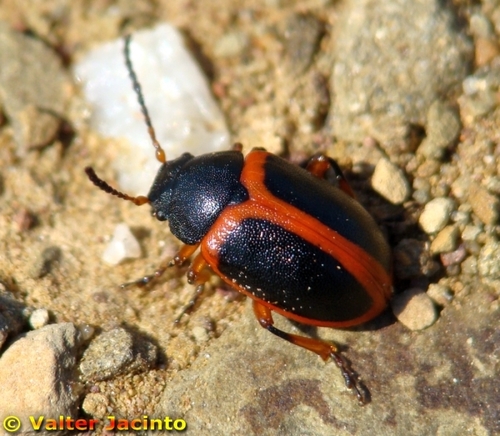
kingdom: Animalia
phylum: Arthropoda
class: Insecta
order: Coleoptera
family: Chrysomelidae
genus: Colaspidema
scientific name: Colaspidema dufouri
